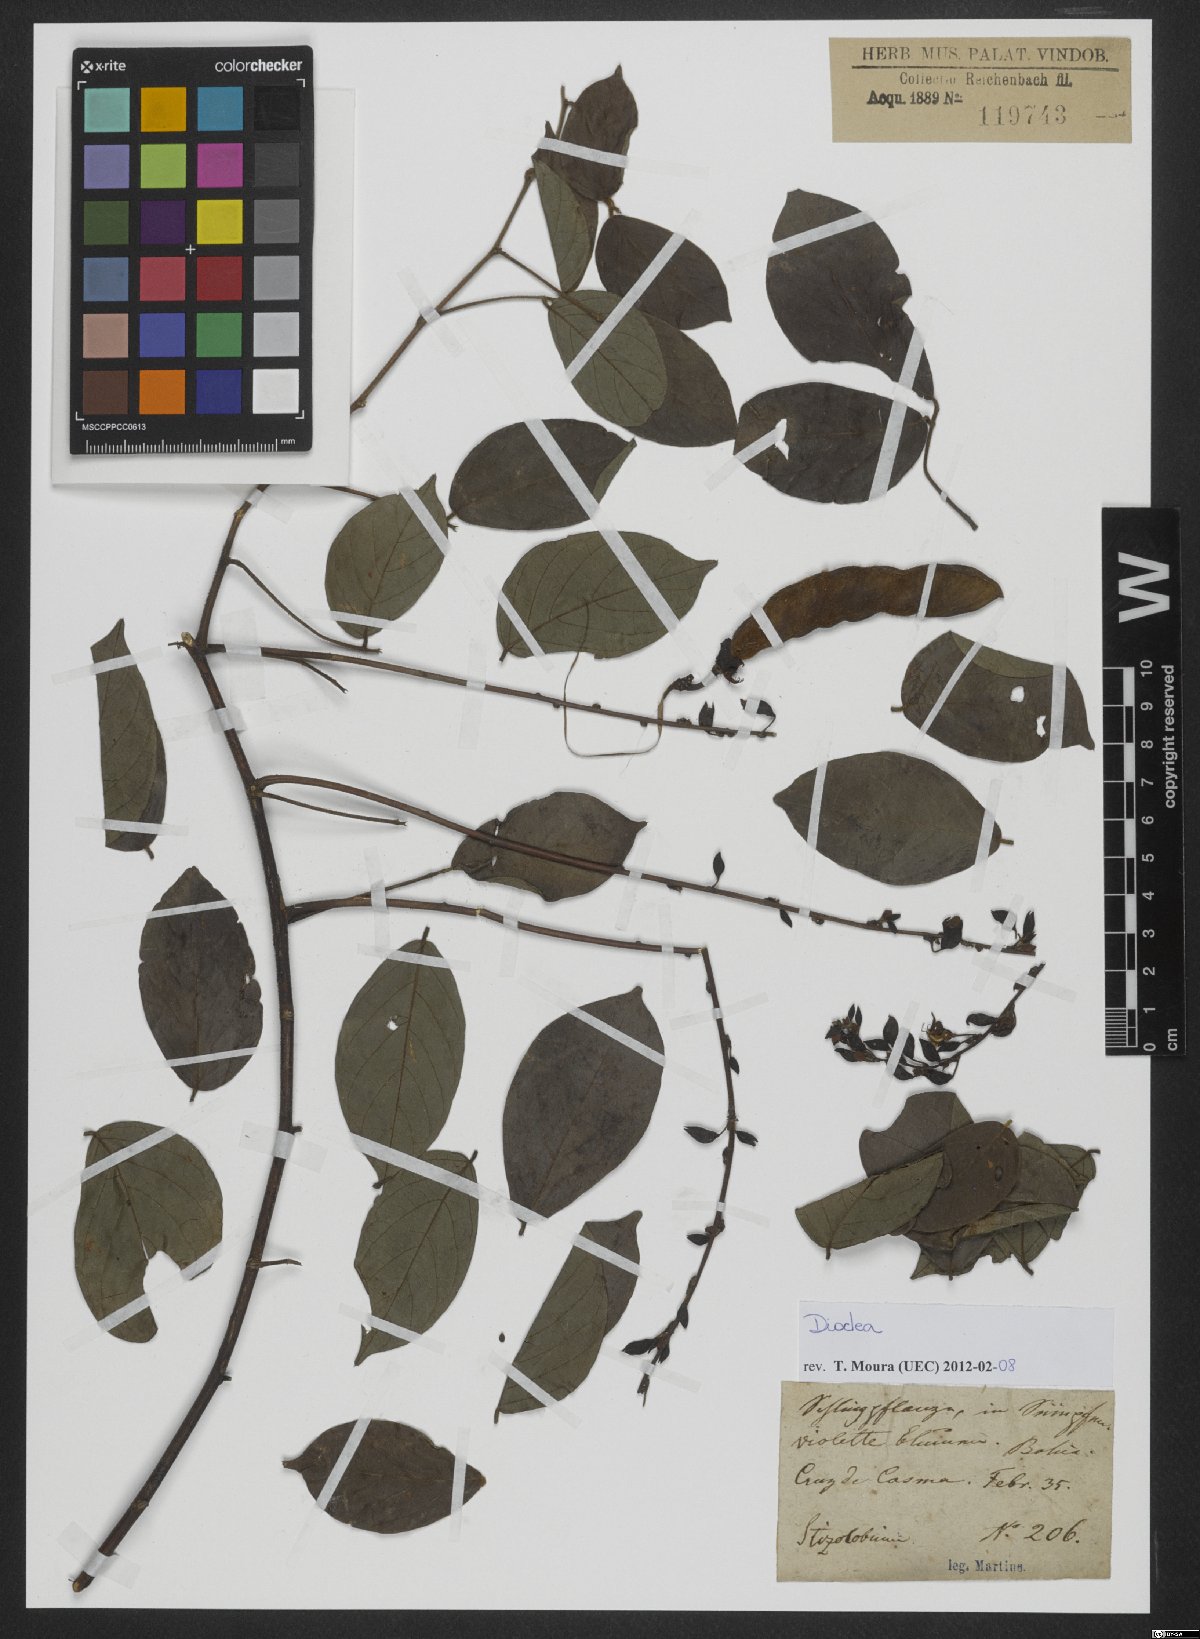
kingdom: Plantae
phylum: Tracheophyta
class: Magnoliopsida
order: Fabales
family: Fabaceae
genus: Dioclea
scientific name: Dioclea
